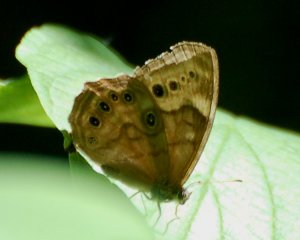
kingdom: Animalia
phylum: Arthropoda
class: Insecta
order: Lepidoptera
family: Nymphalidae
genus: Lethe
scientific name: Lethe anthedon
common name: Northern Pearly-Eye
